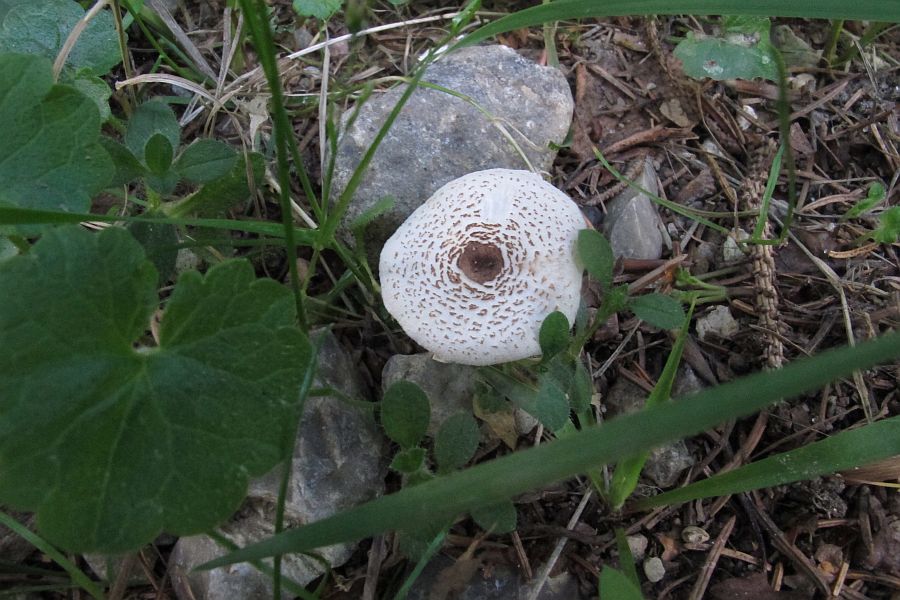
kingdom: Fungi
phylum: Basidiomycota
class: Agaricomycetes
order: Agaricales
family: Agaricaceae
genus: Lepiota
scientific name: Lepiota cristata
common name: stinkende parasolhat
